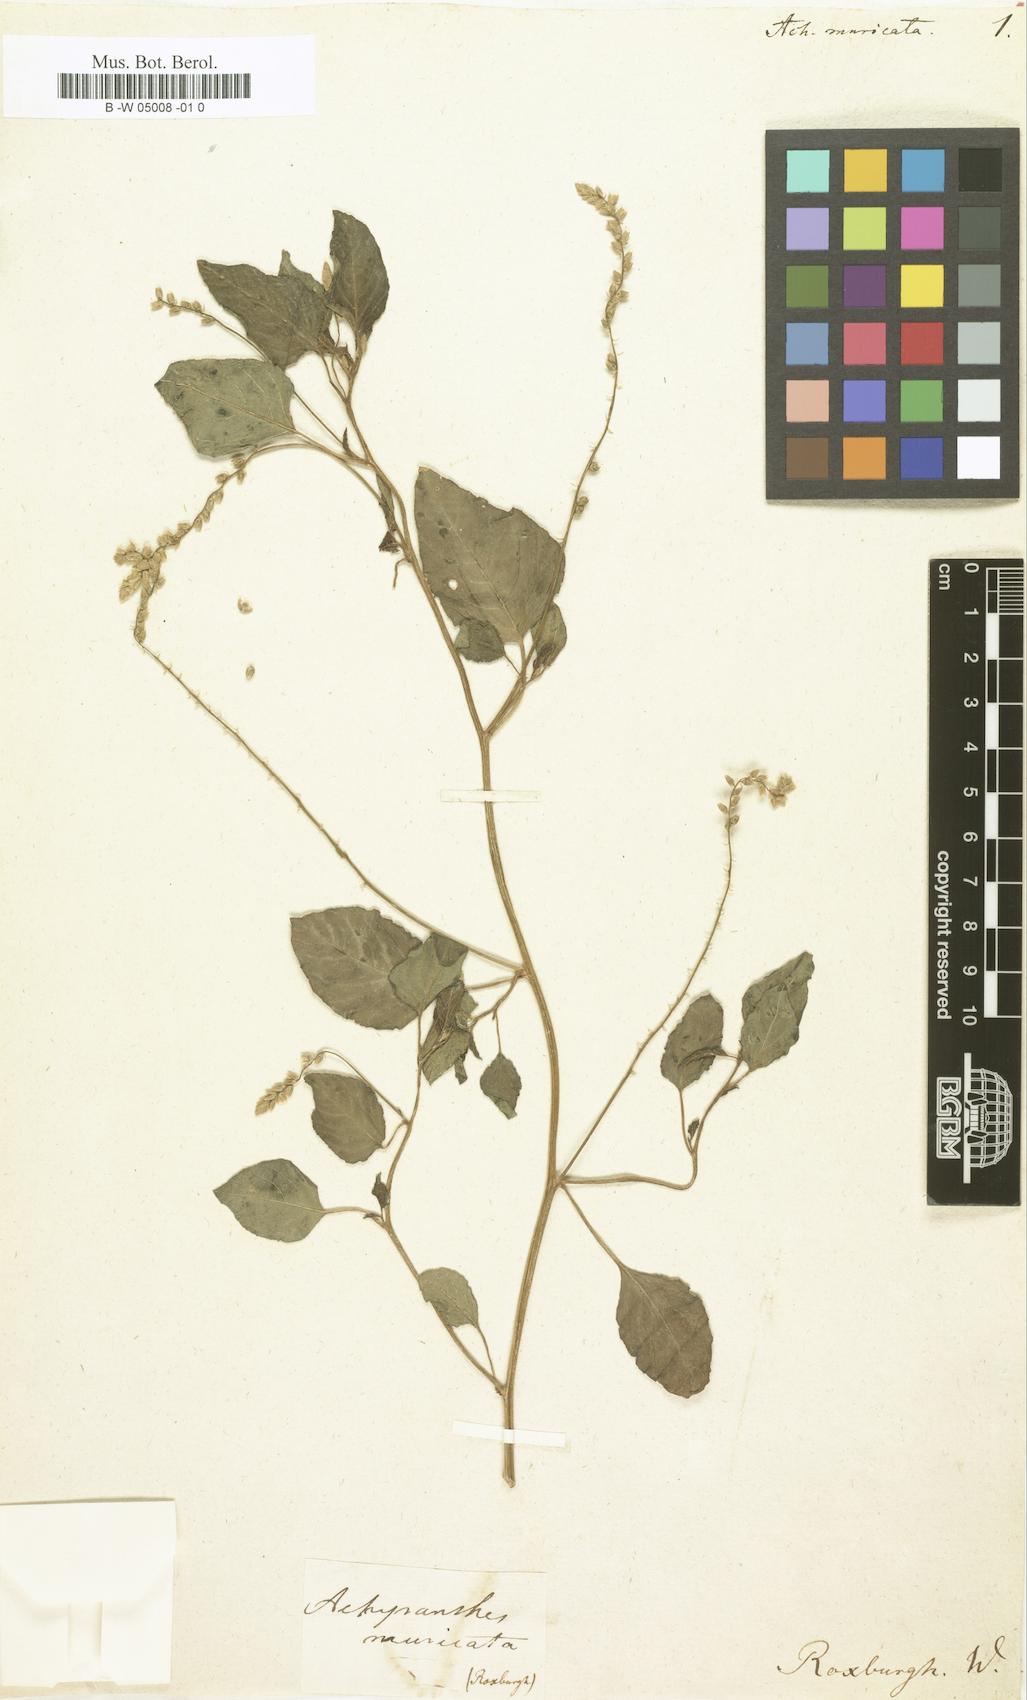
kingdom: Plantae
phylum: Tracheophyta
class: Magnoliopsida
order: Caryophyllales
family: Amaranthaceae
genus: Digera
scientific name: Digera muricata
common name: False amaranth
